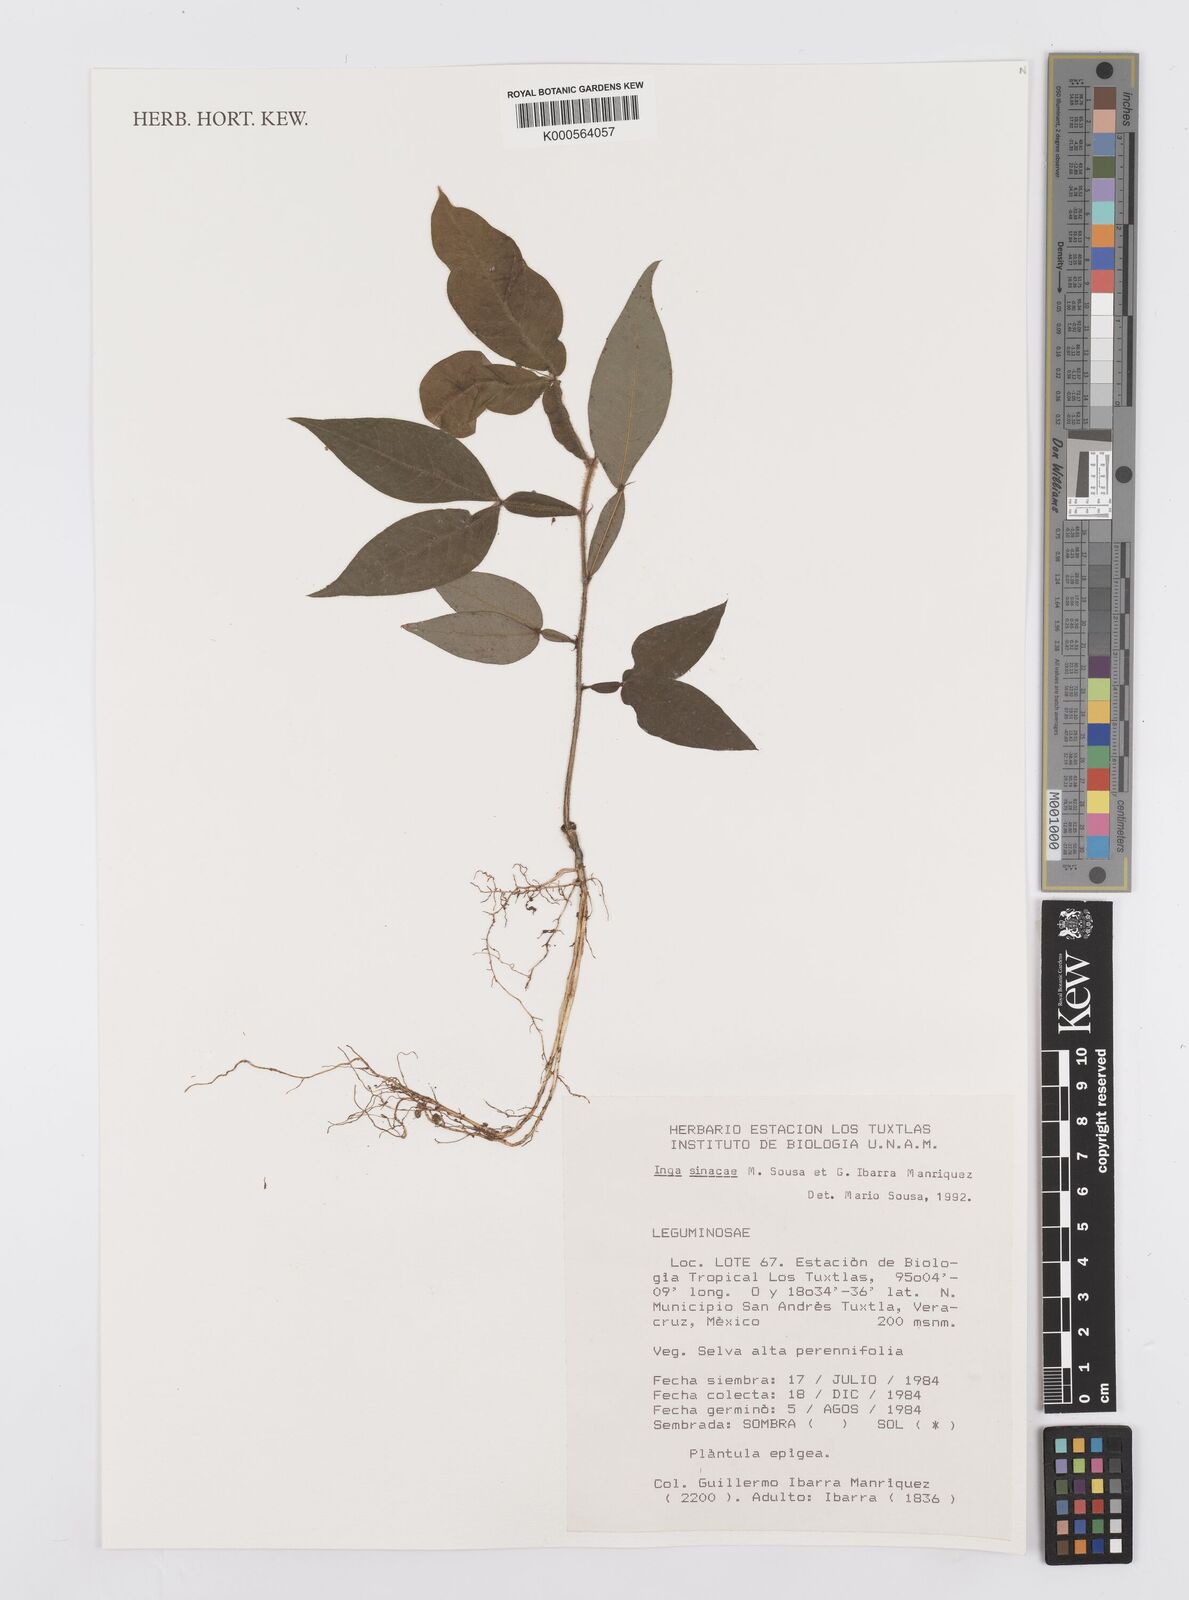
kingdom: Plantae
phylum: Tracheophyta
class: Magnoliopsida
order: Fabales
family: Fabaceae
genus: Inga
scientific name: Inga sinacae
